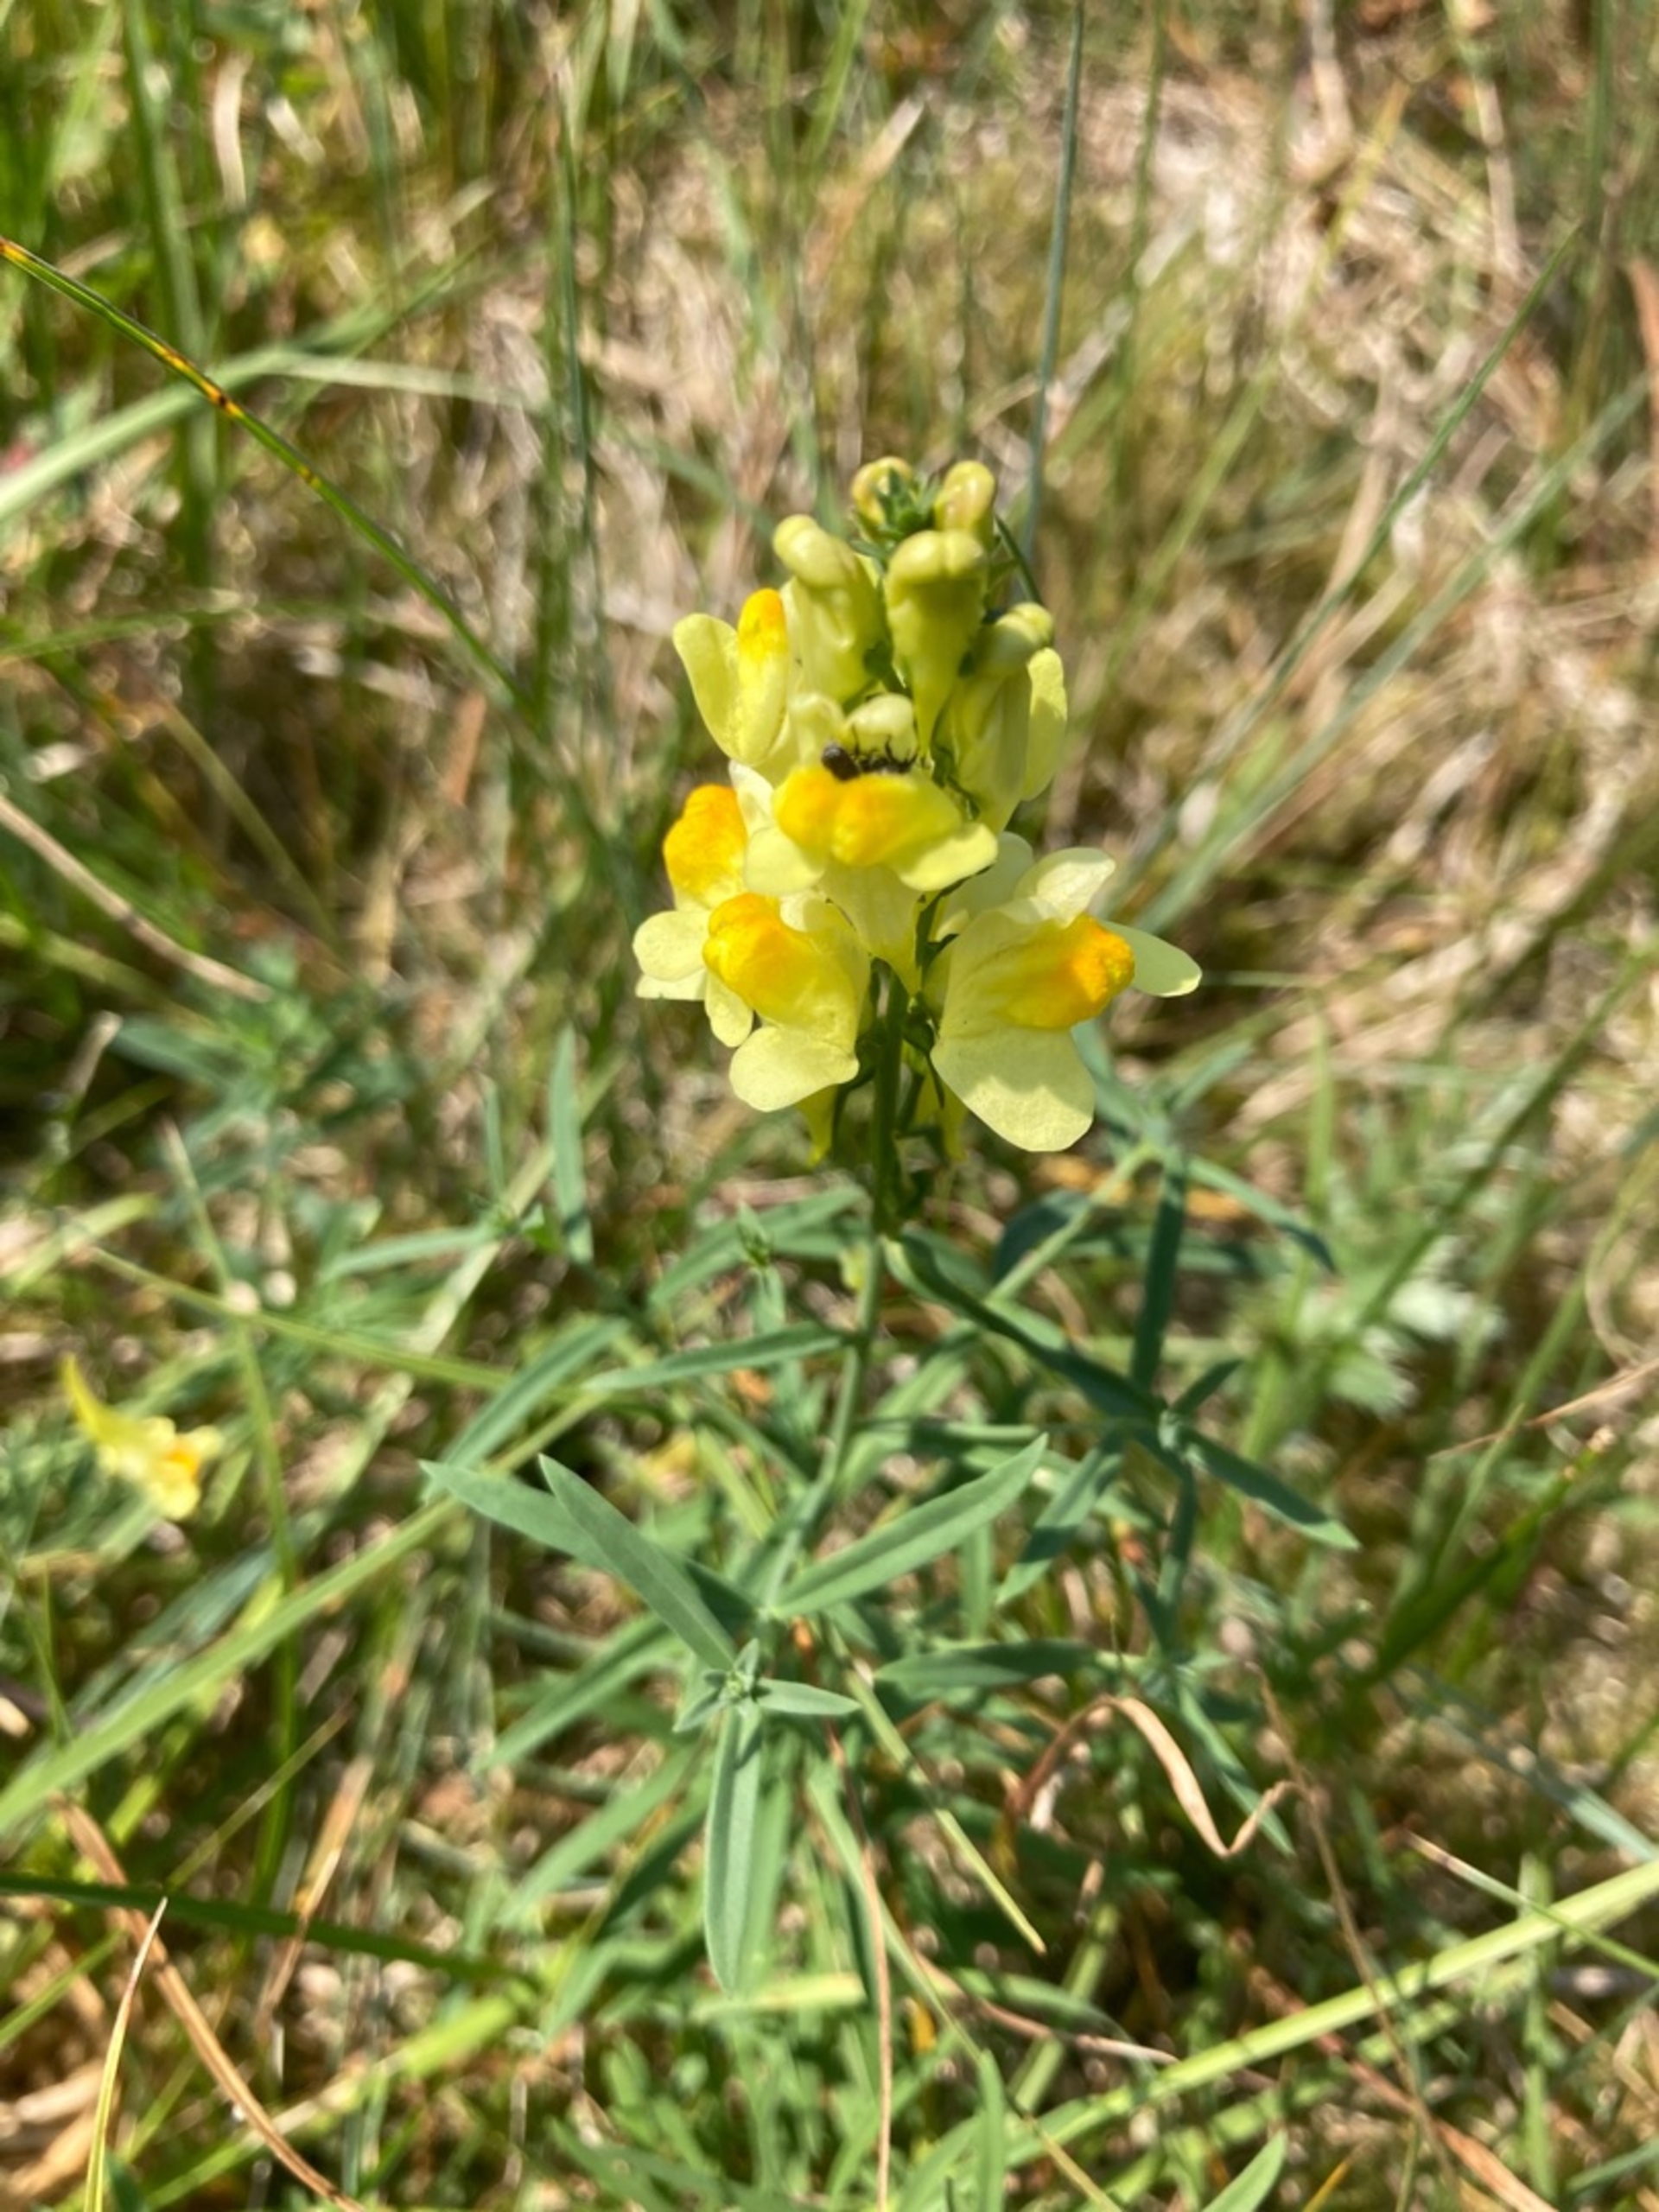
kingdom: Plantae
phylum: Tracheophyta
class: Magnoliopsida
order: Lamiales
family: Plantaginaceae
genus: Linaria
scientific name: Linaria
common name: Torskemund (Linaria-slægten)
